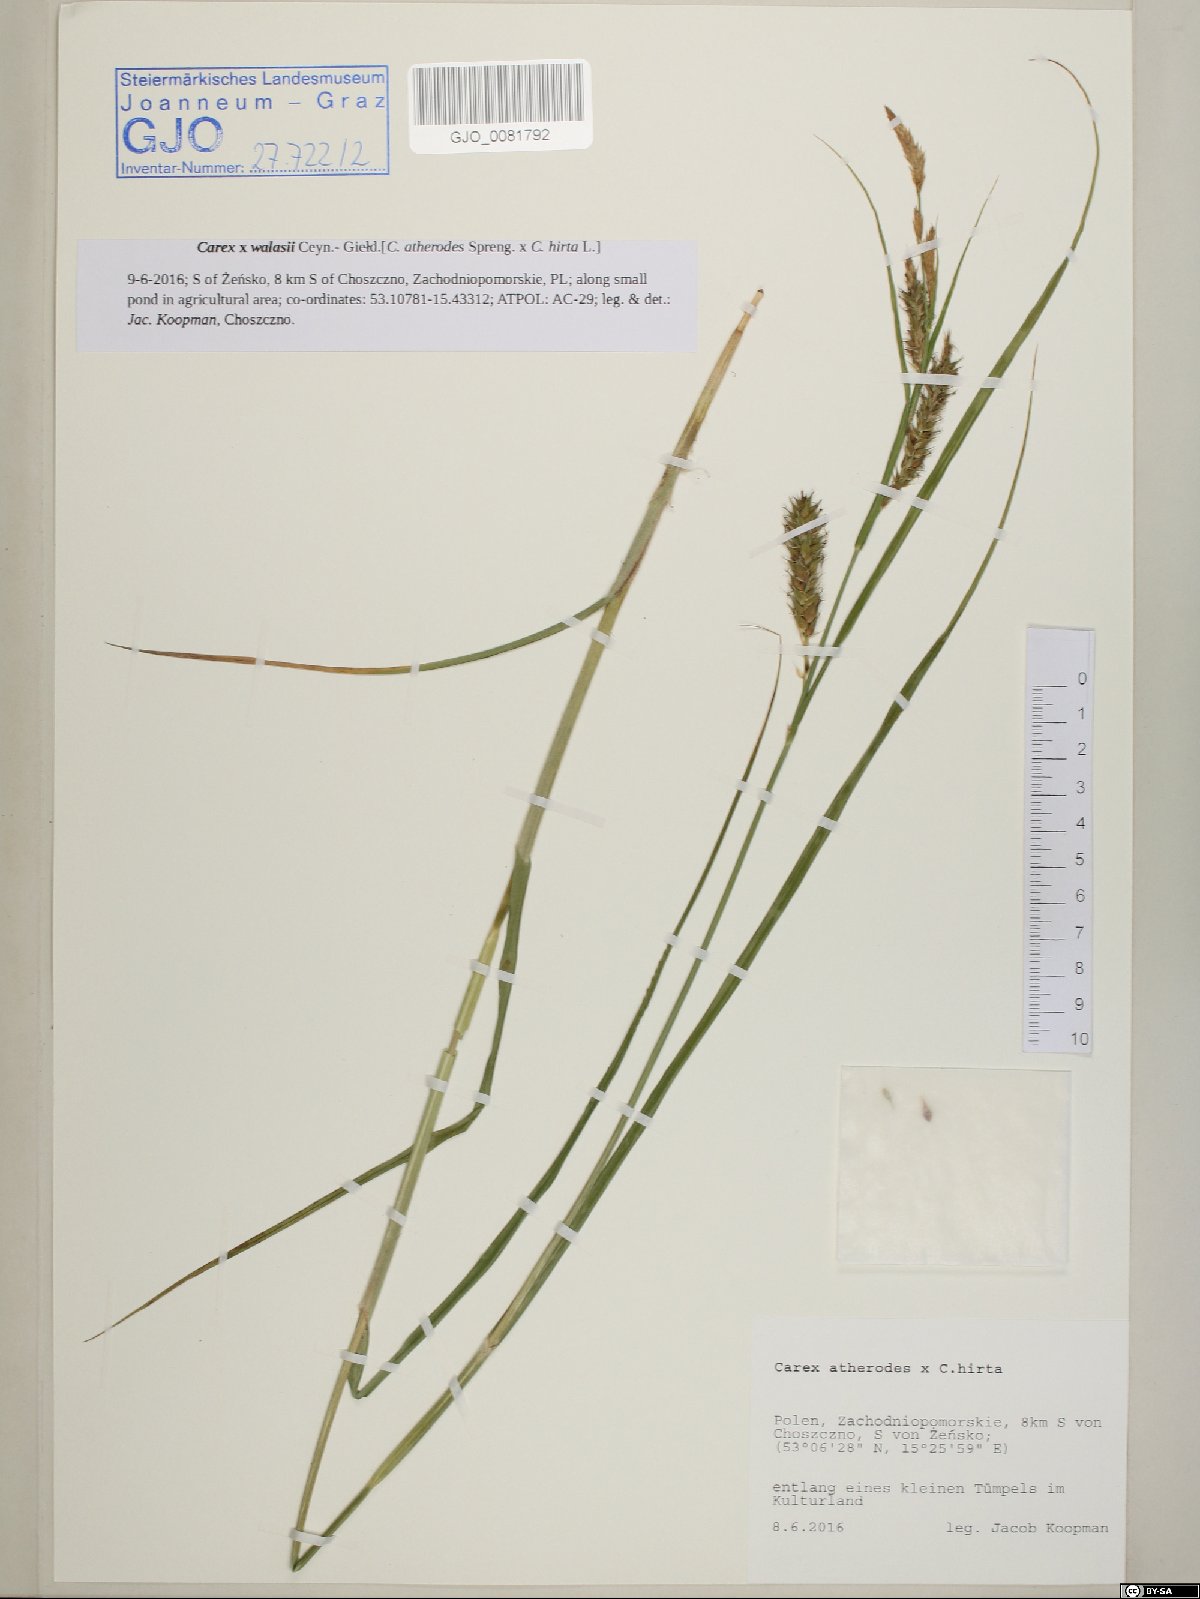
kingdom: Plantae
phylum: Tracheophyta
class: Liliopsida
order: Poales
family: Cyperaceae
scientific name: Cyperaceae
